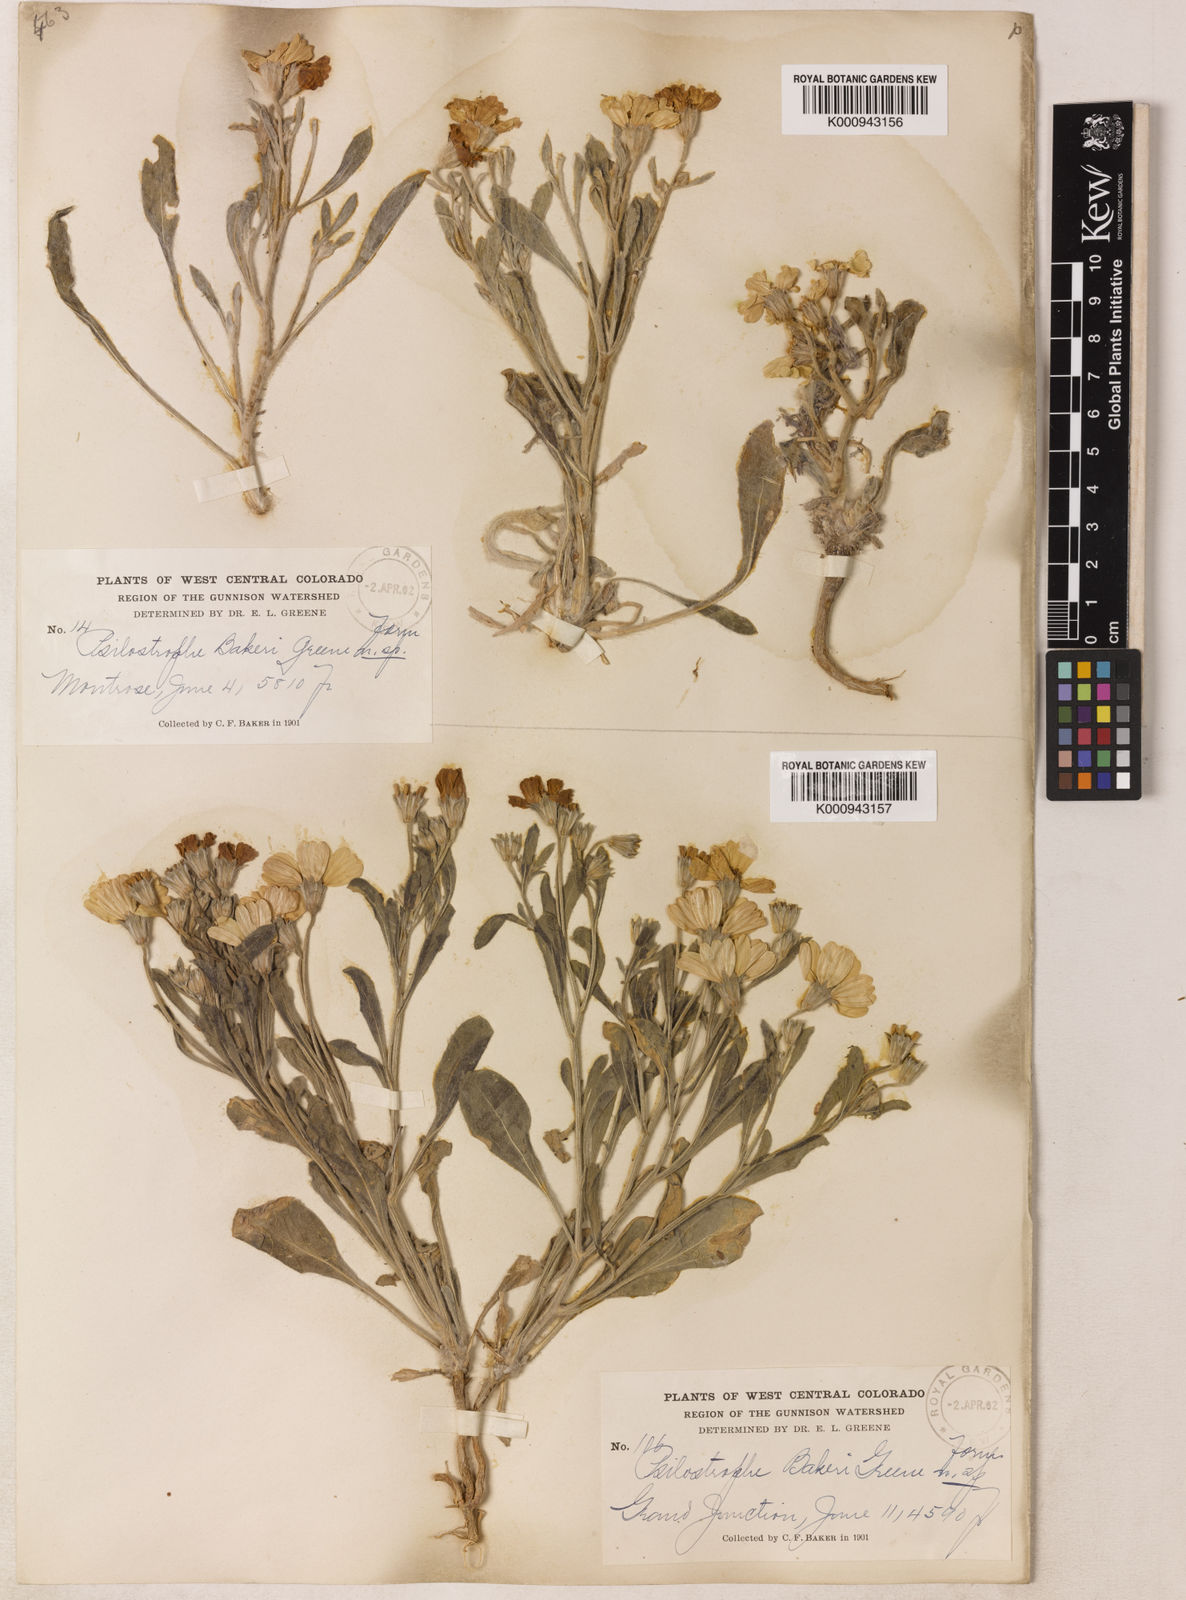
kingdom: Plantae
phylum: Tracheophyta
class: Magnoliopsida
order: Asterales
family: Asteraceae
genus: Psilostrophe
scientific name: Psilostrophe bakeri
